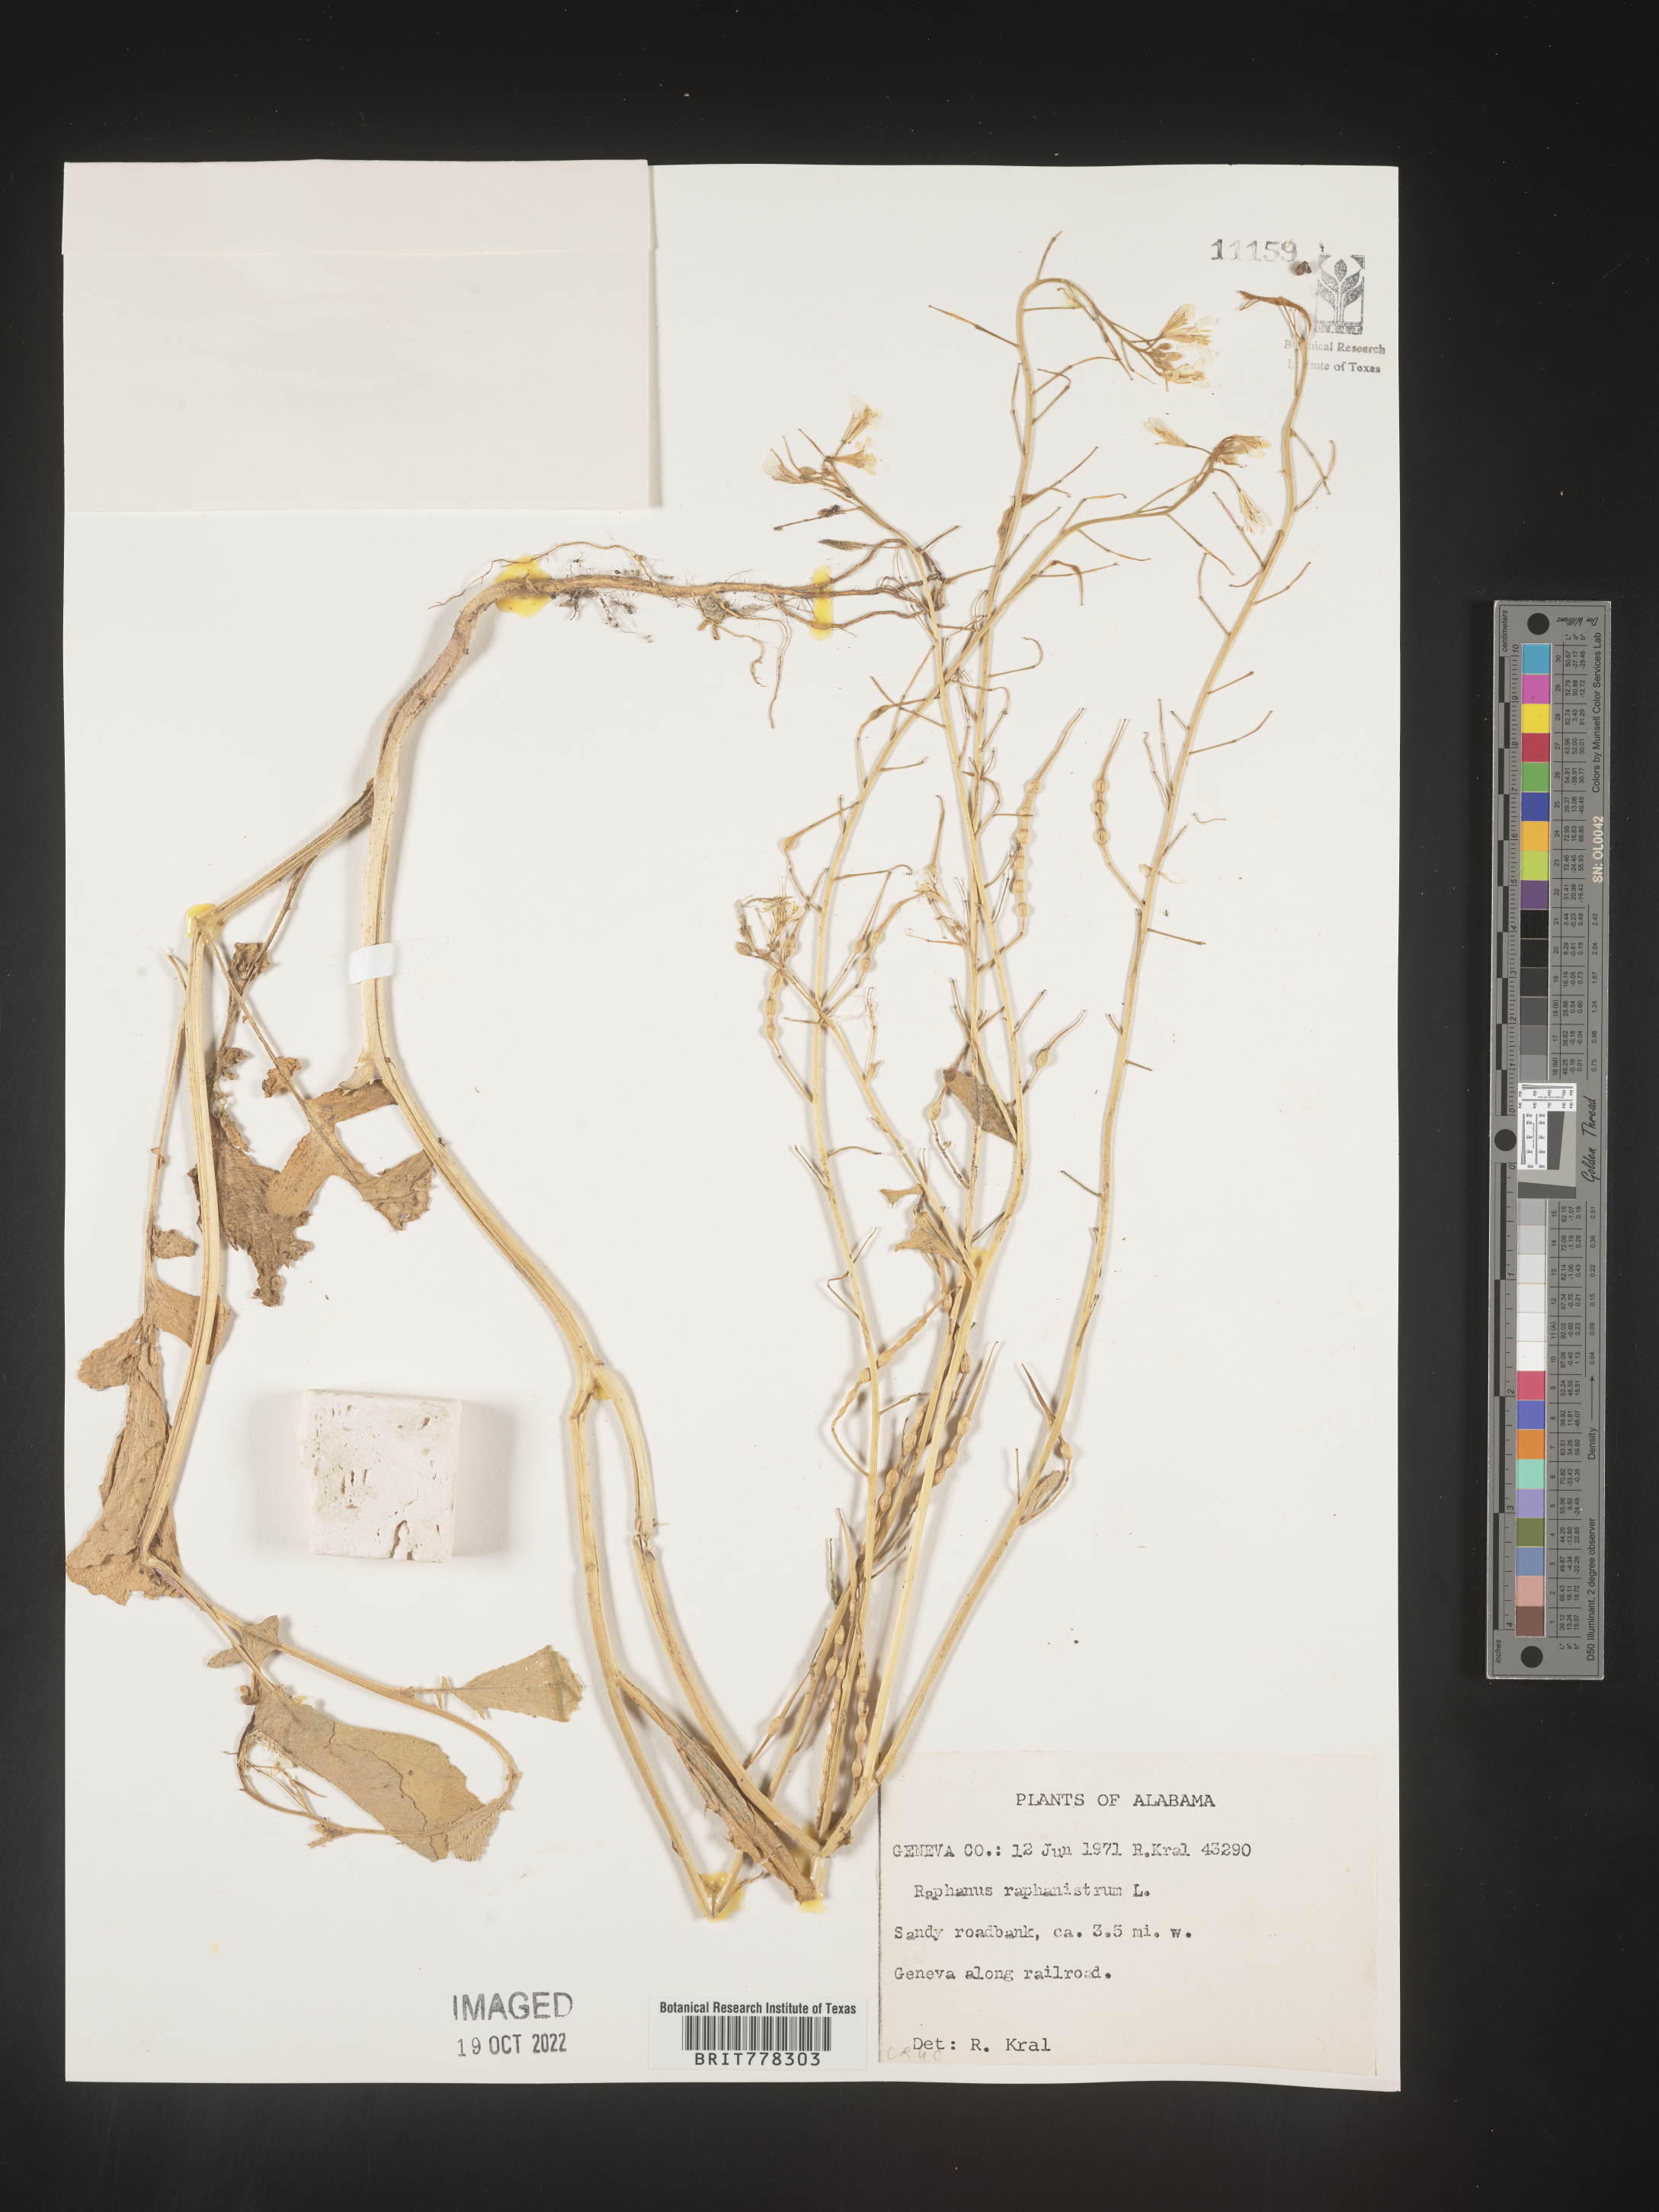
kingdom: Plantae
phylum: Tracheophyta
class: Magnoliopsida
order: Brassicales
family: Brassicaceae
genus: Raphanus
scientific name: Raphanus raphanistrum
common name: Wild radish
